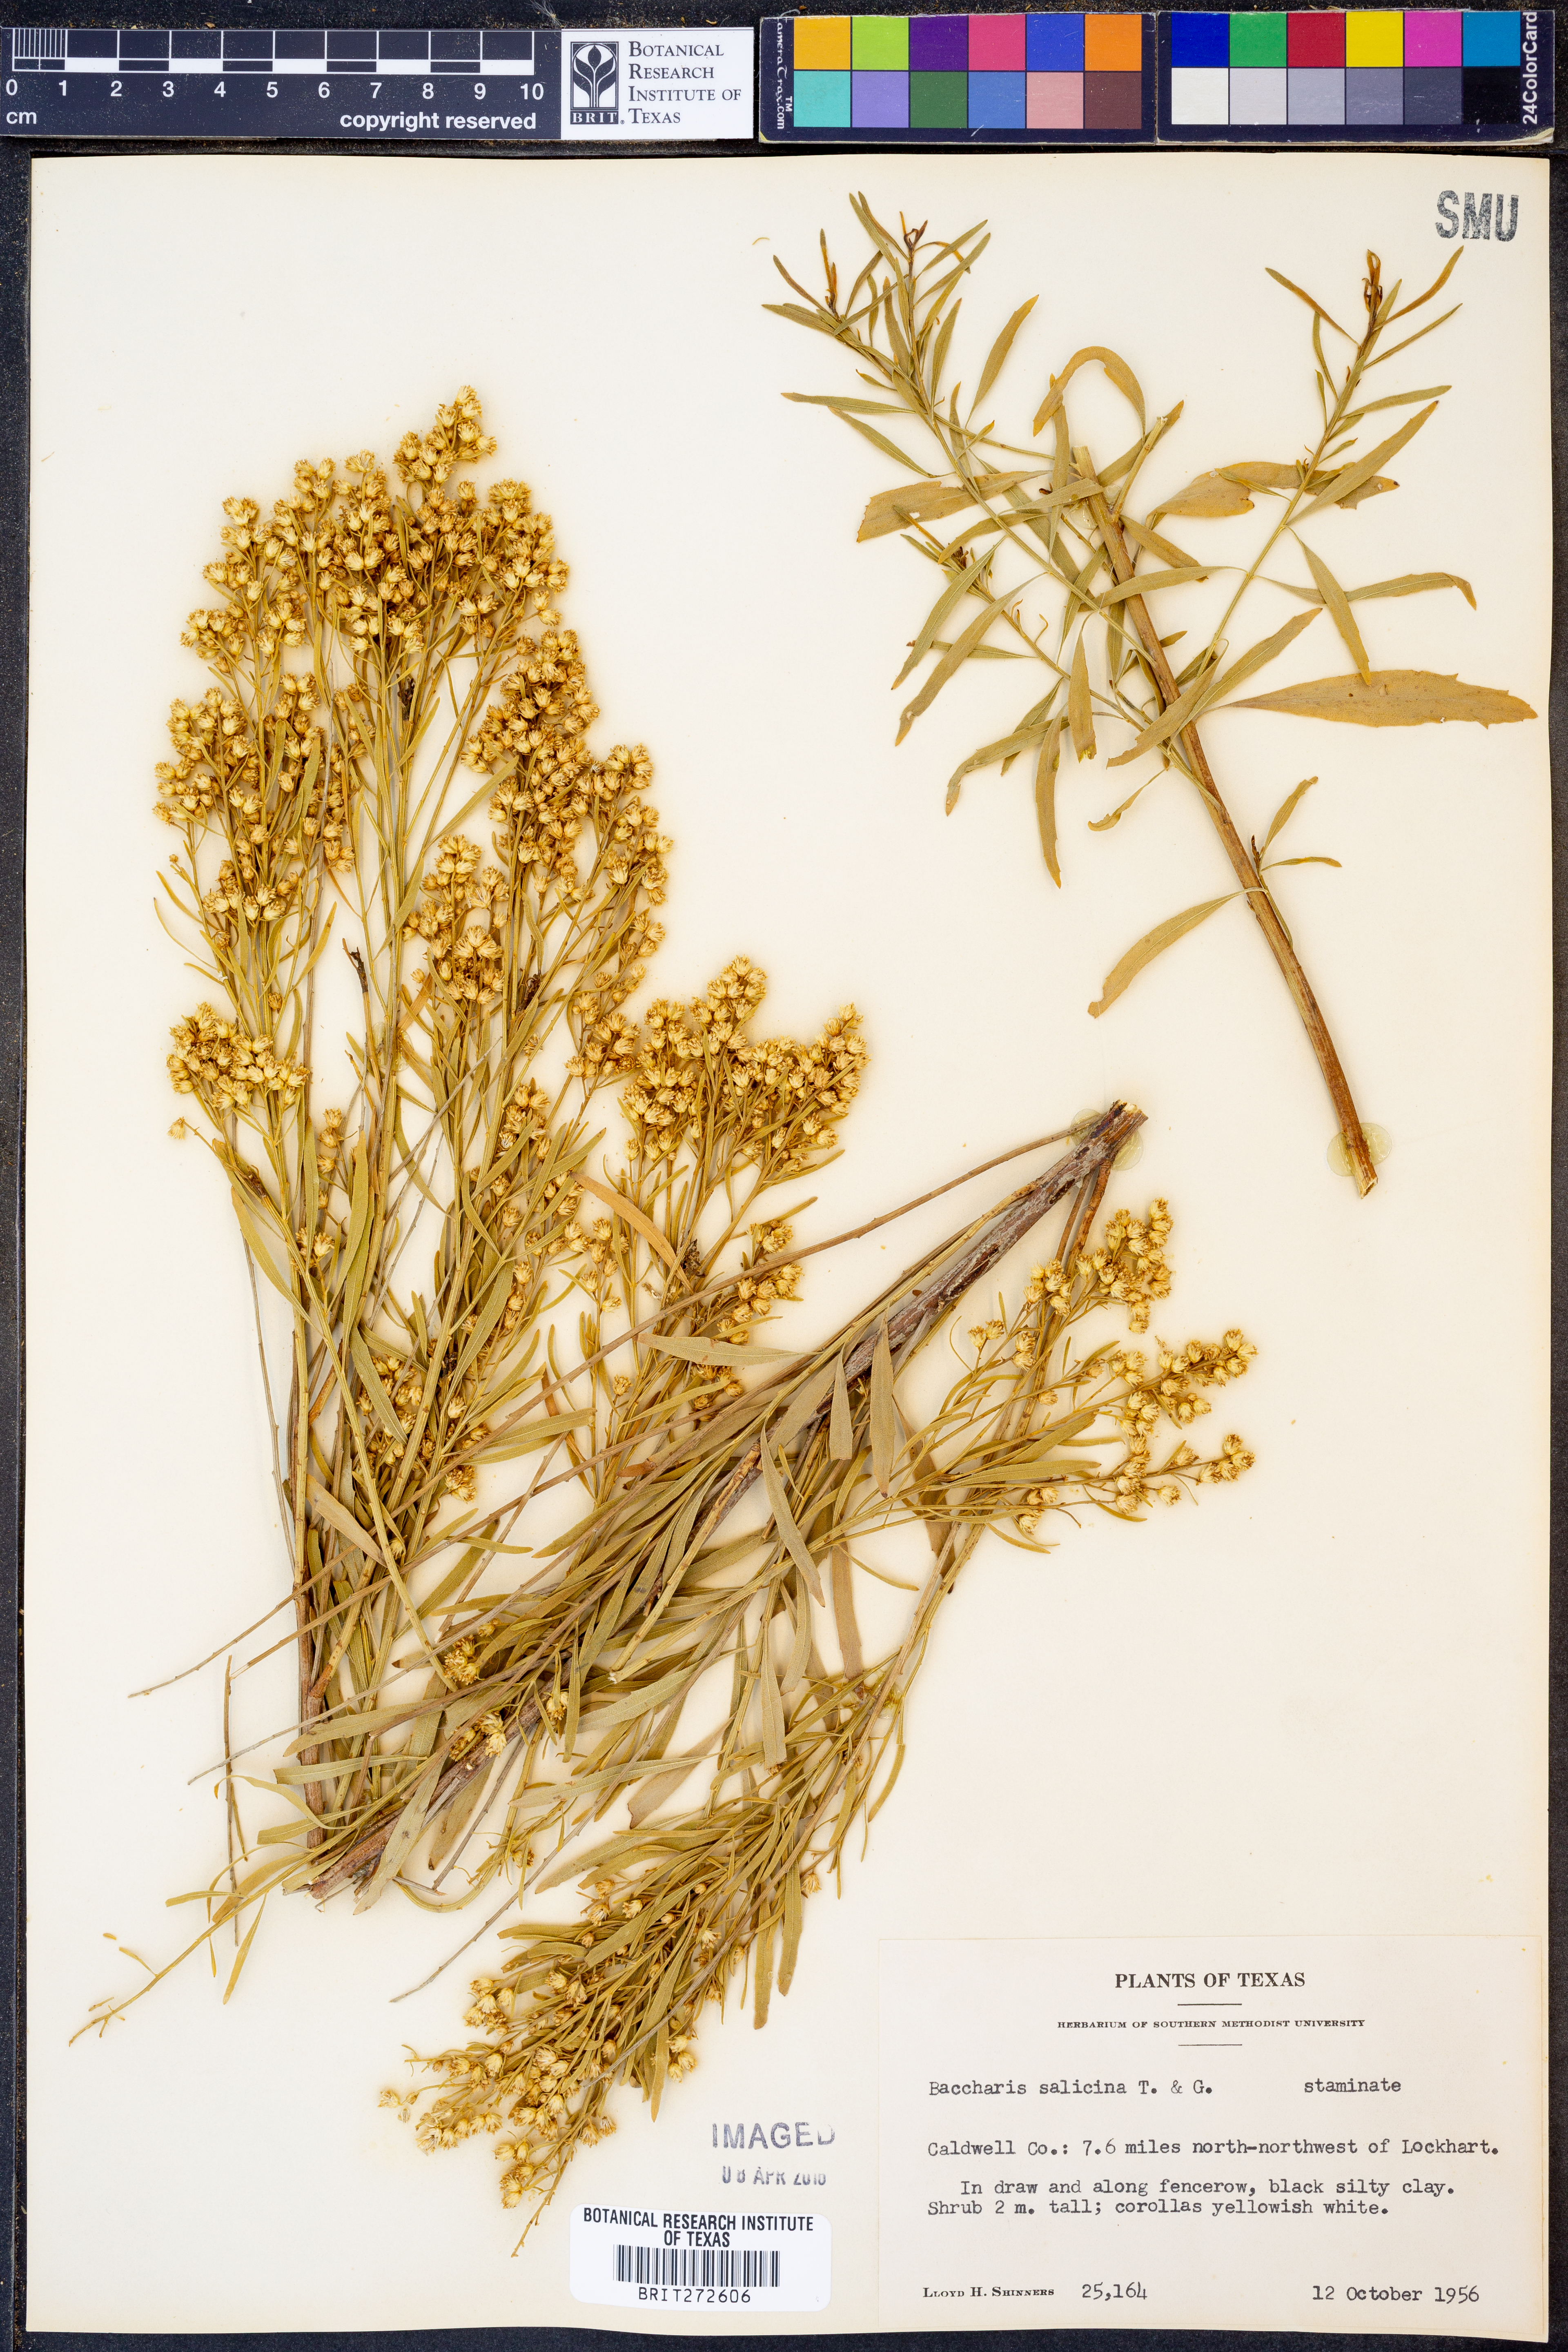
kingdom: Plantae
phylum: Tracheophyta
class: Magnoliopsida
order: Asterales
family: Asteraceae
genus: Baccharis
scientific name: Baccharis salicina
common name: Willow baccharis
